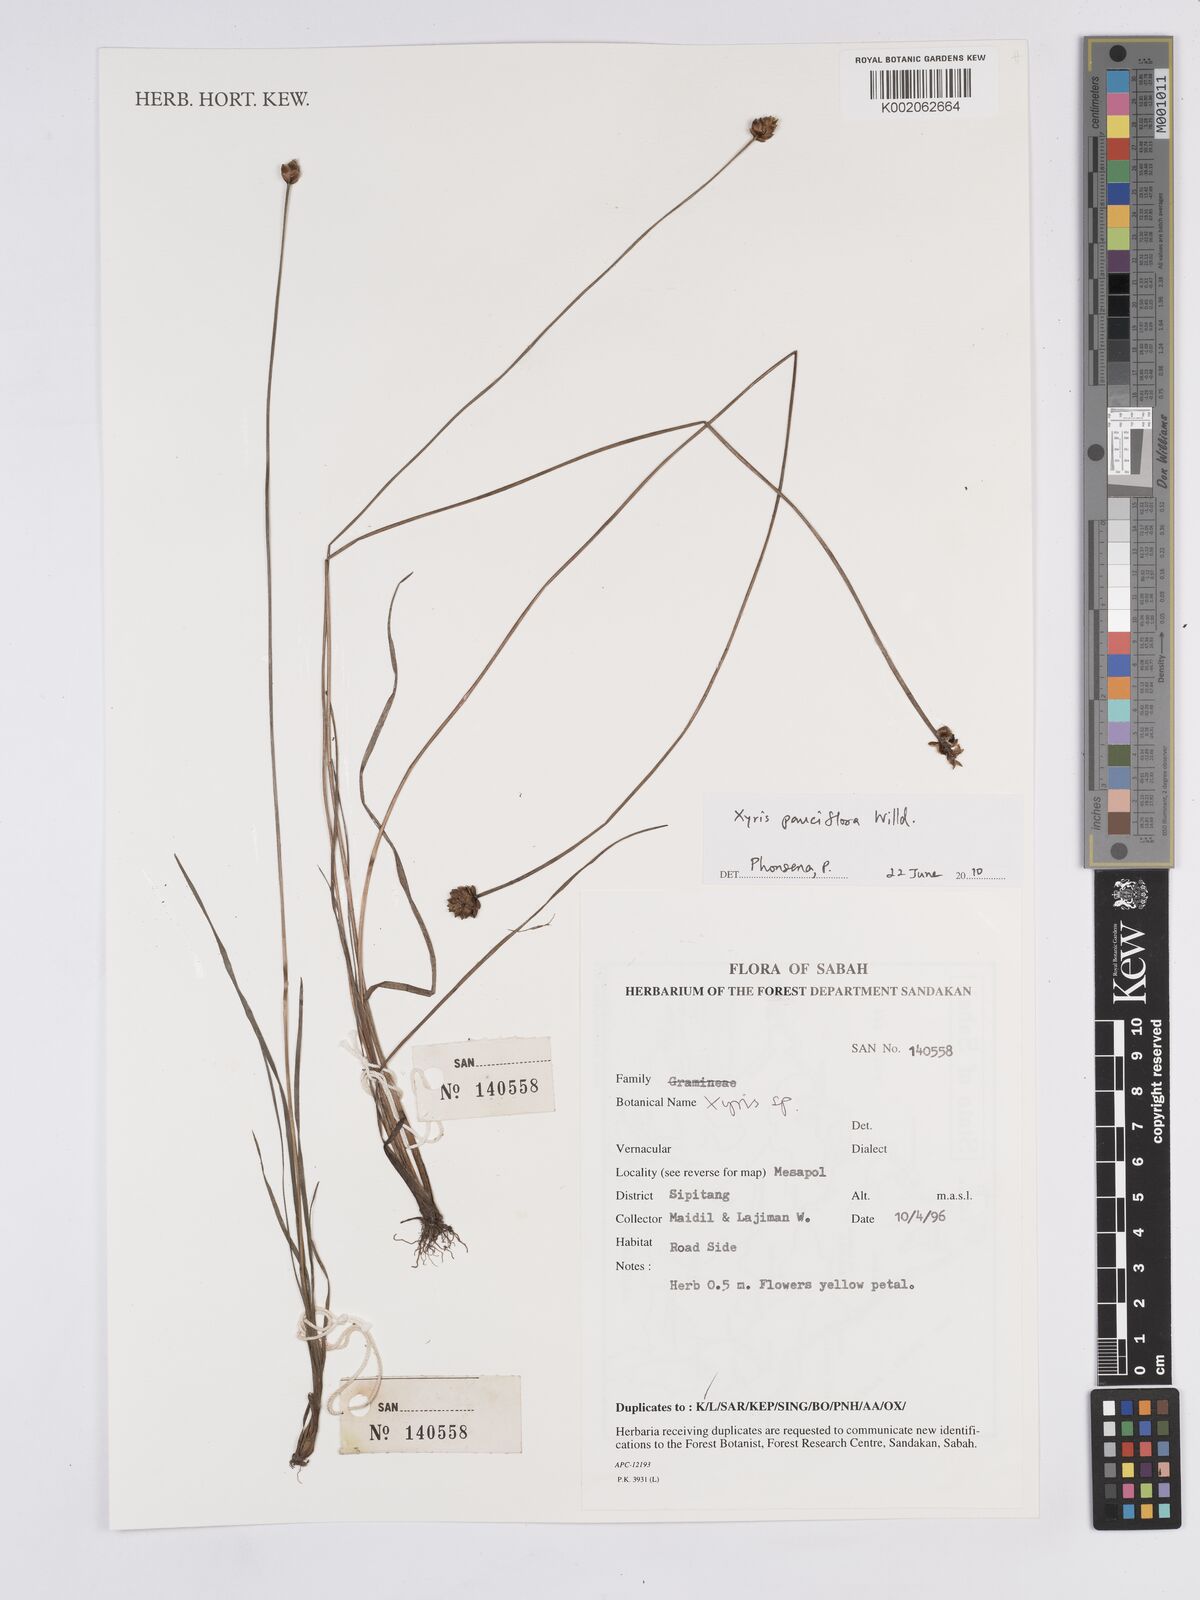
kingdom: Plantae
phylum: Tracheophyta
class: Liliopsida
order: Poales
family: Xyridaceae
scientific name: Xyridaceae
